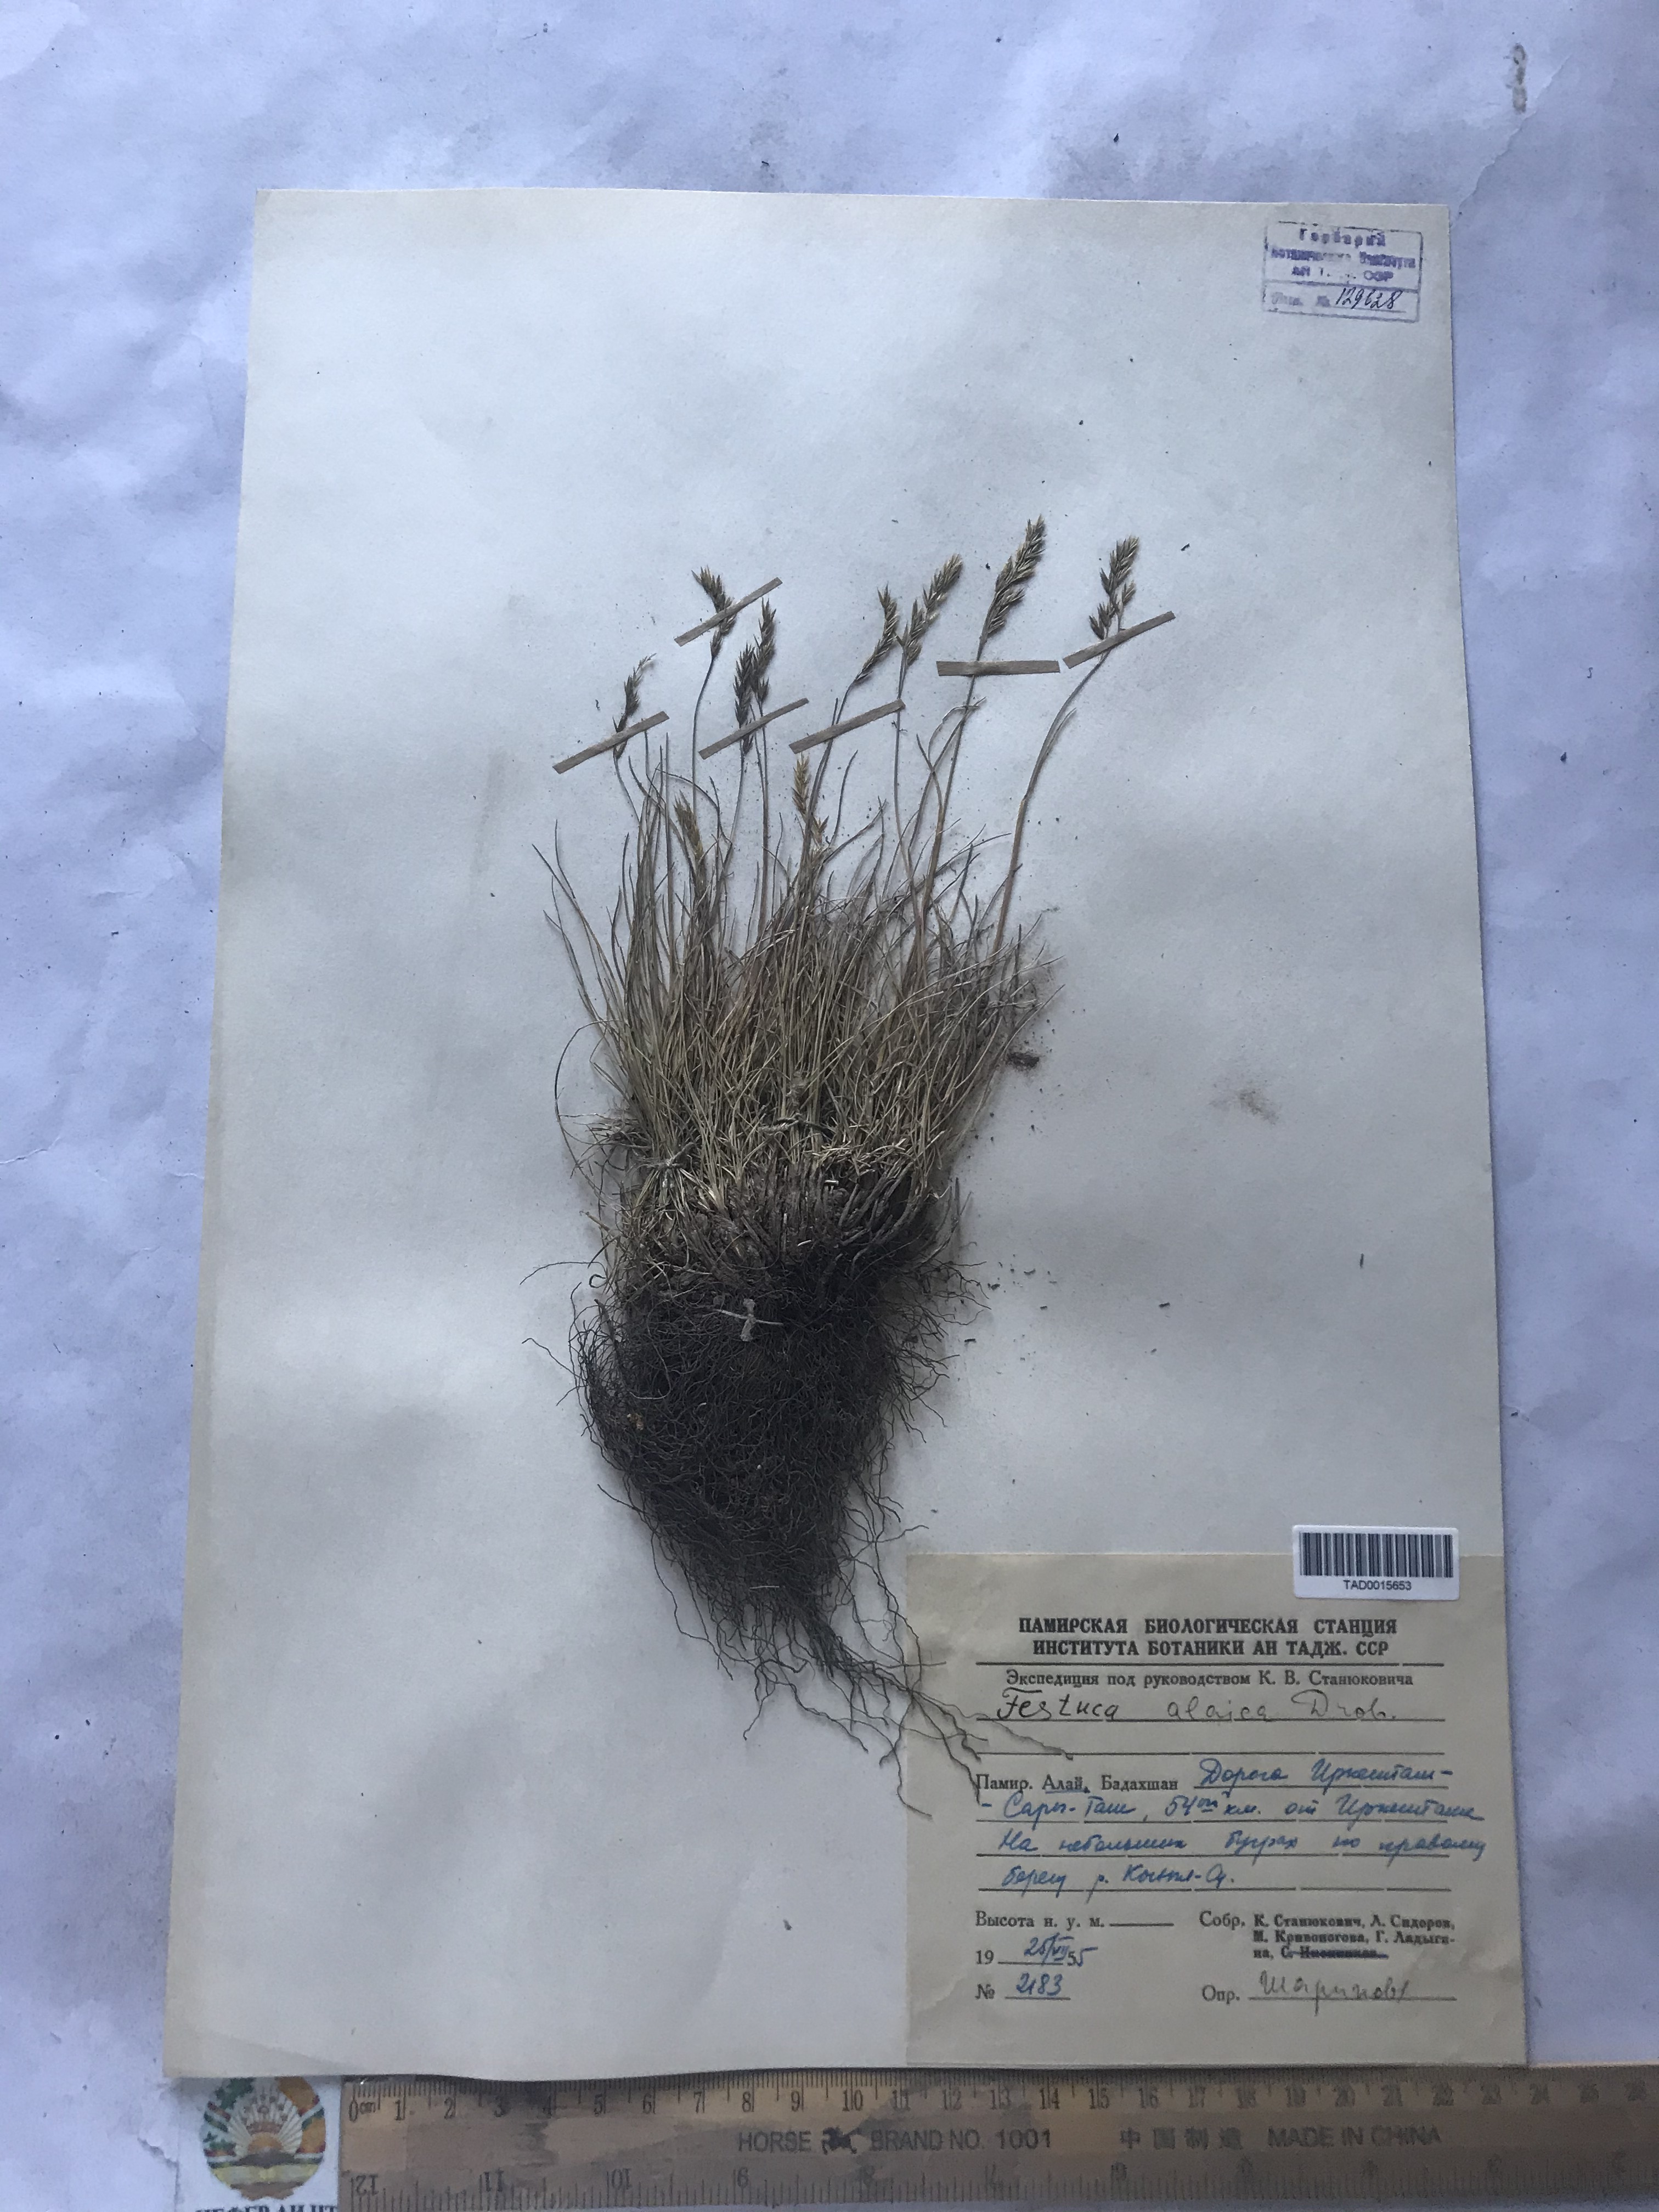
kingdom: Plantae
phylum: Tracheophyta
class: Liliopsida
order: Poales
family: Poaceae
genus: Festuca
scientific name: Festuca alaica
